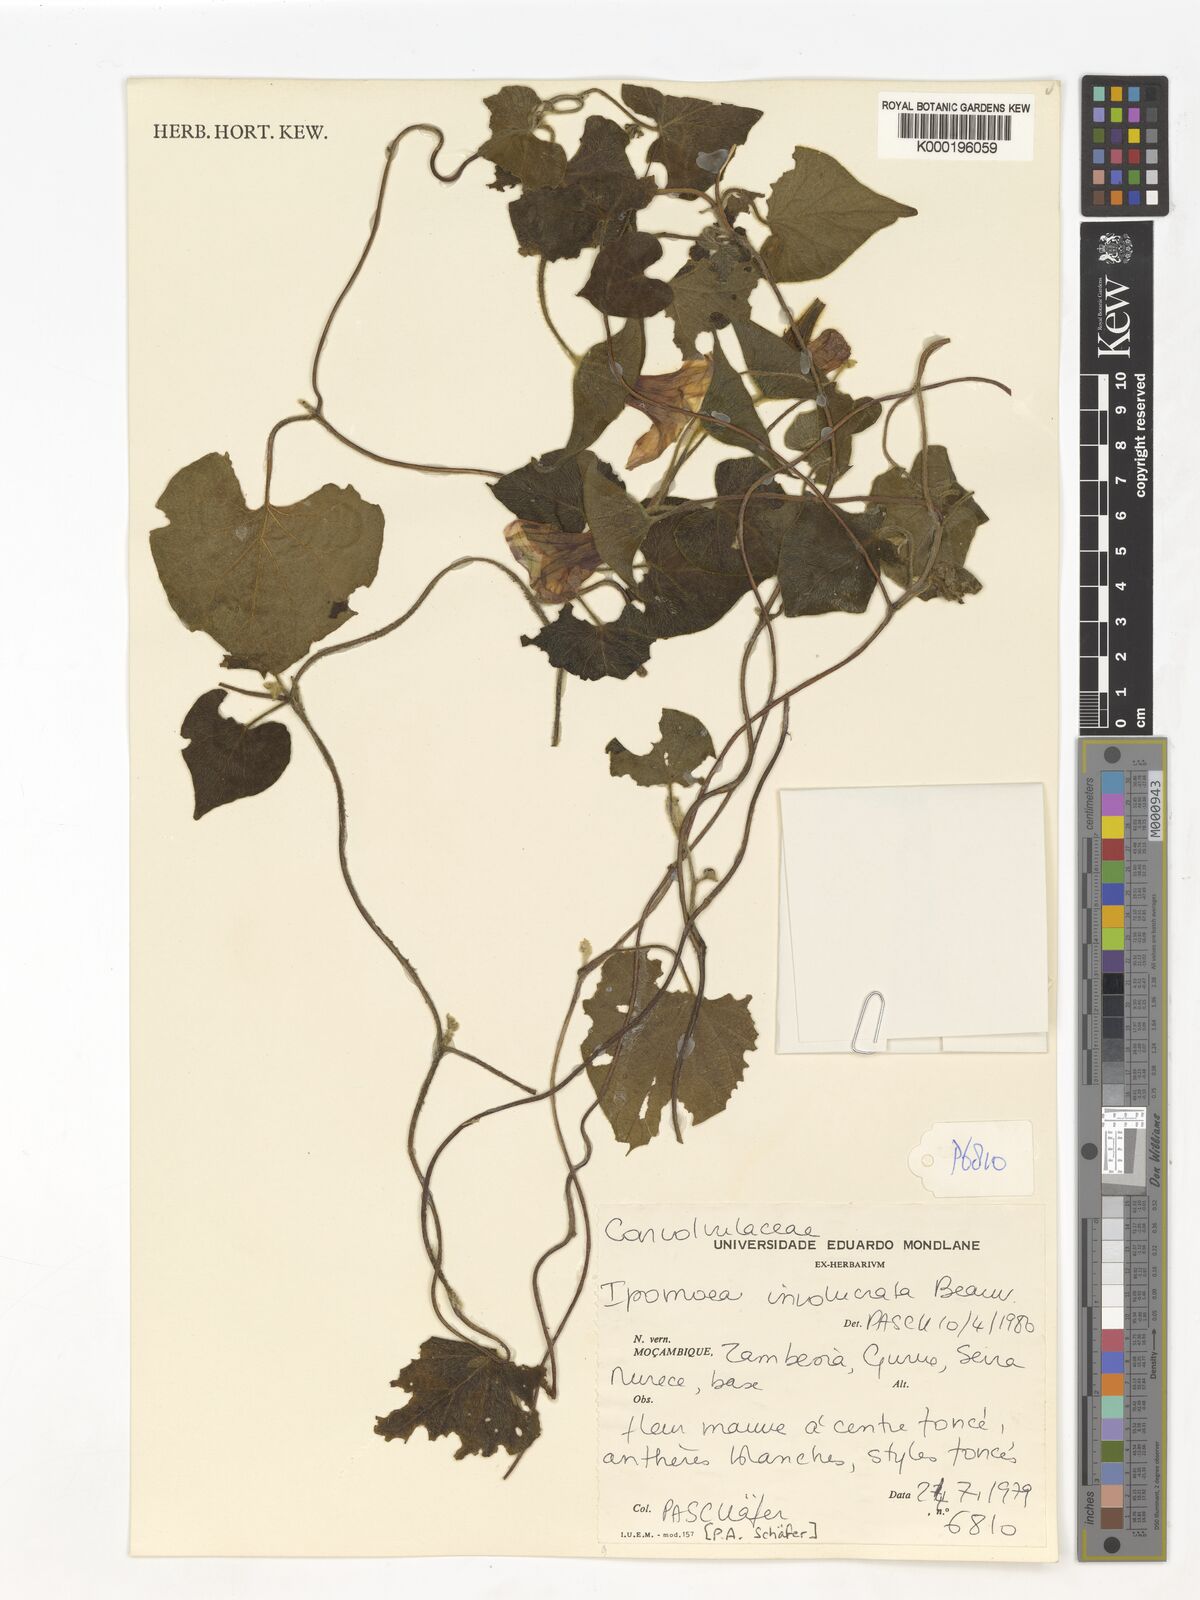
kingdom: Plantae
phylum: Tracheophyta
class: Magnoliopsida
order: Solanales
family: Convolvulaceae
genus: Ipomoea
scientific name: Ipomoea involucrata
